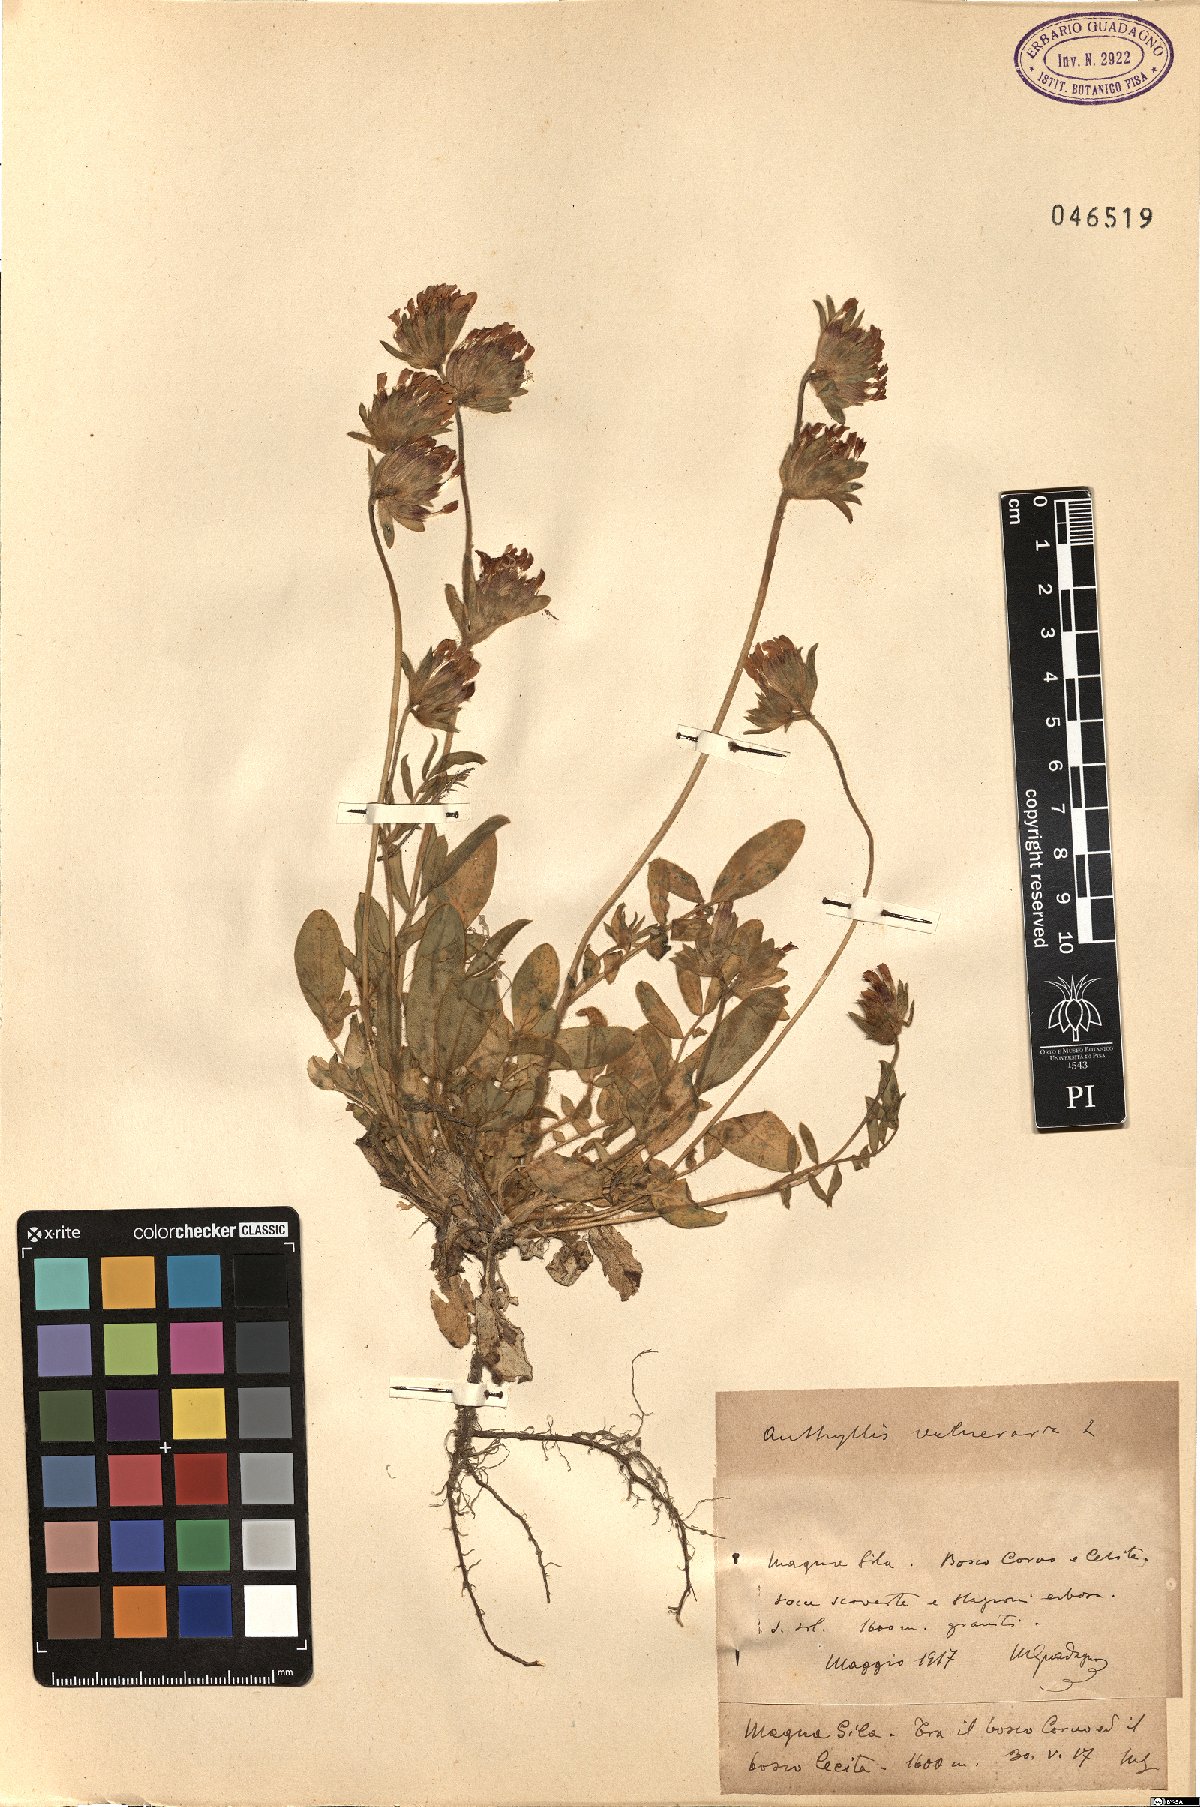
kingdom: Plantae
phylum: Tracheophyta
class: Magnoliopsida
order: Fabales
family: Fabaceae
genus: Anthyllis
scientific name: Anthyllis vulneraria
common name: Kidney vetch
